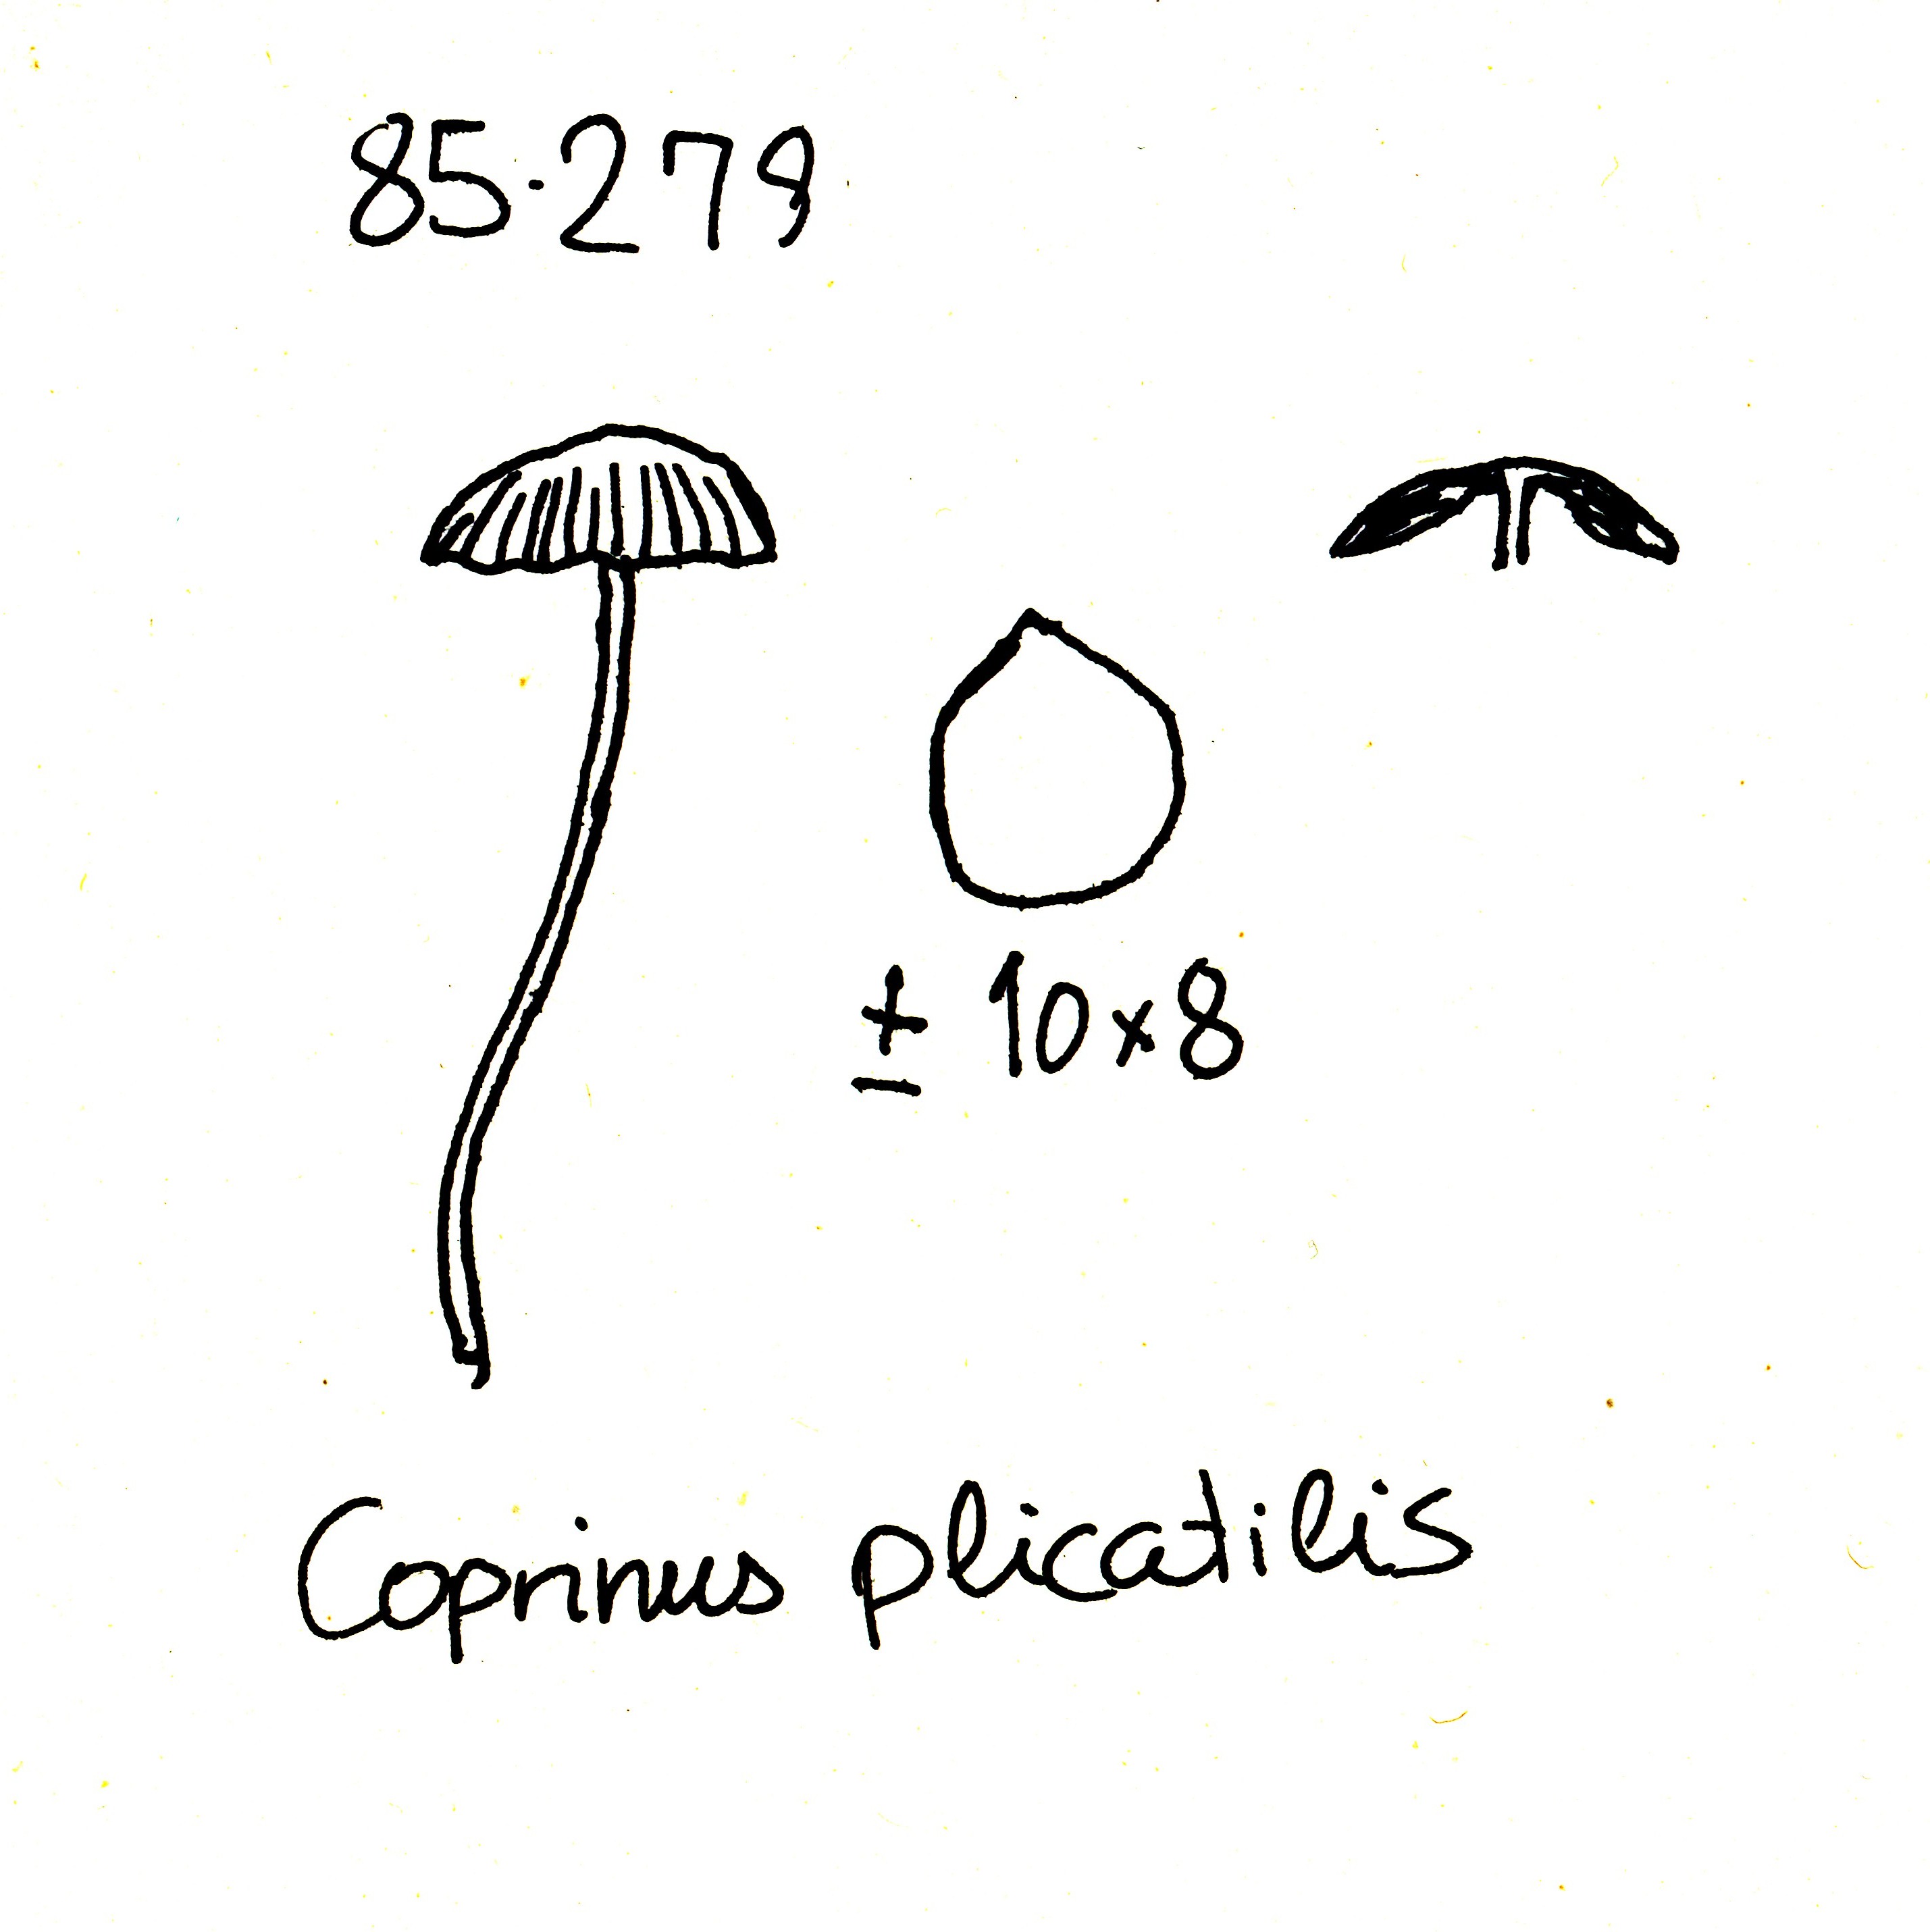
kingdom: Fungi
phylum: Basidiomycota
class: Agaricomycetes
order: Agaricales
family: Psathyrellaceae
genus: Parasola
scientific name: Parasola plicatilis
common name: plæne-hjulhat
